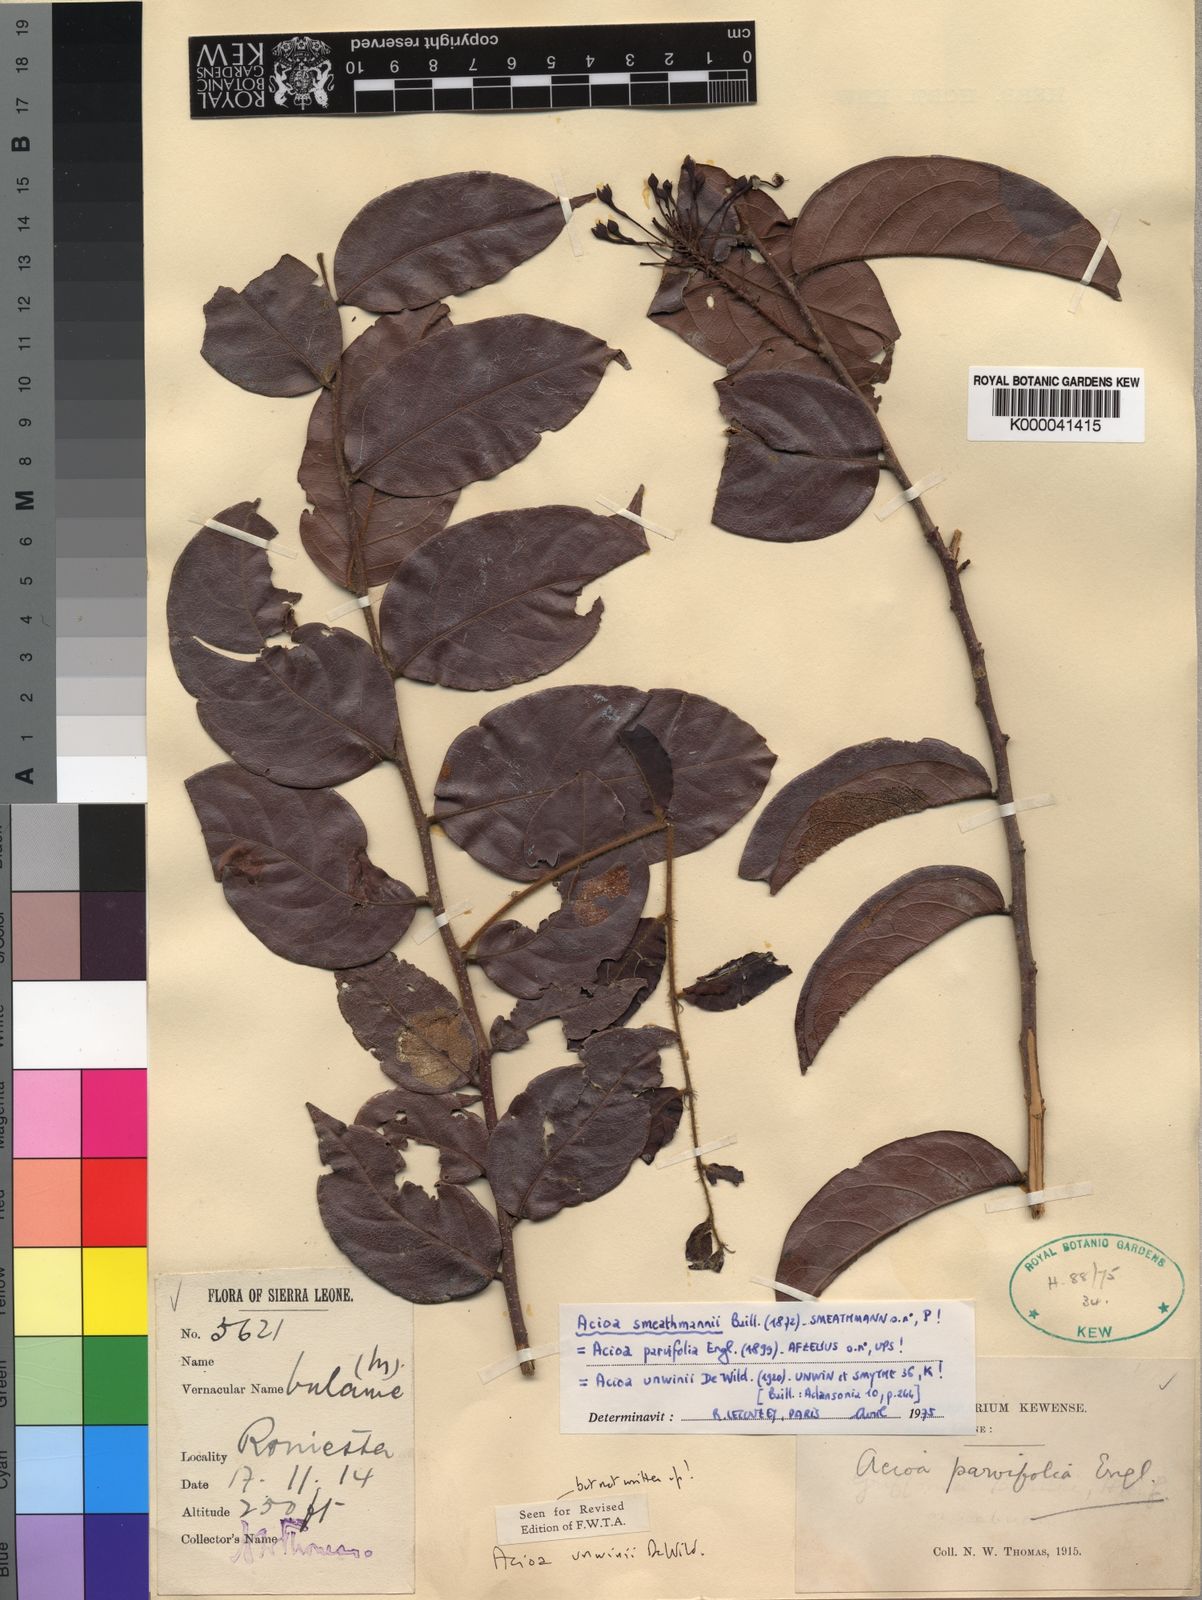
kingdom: Plantae
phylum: Tracheophyta
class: Magnoliopsida
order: Malpighiales
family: Chrysobalanaceae
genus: Dactyladenia
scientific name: Dactyladenia smeathmannii
